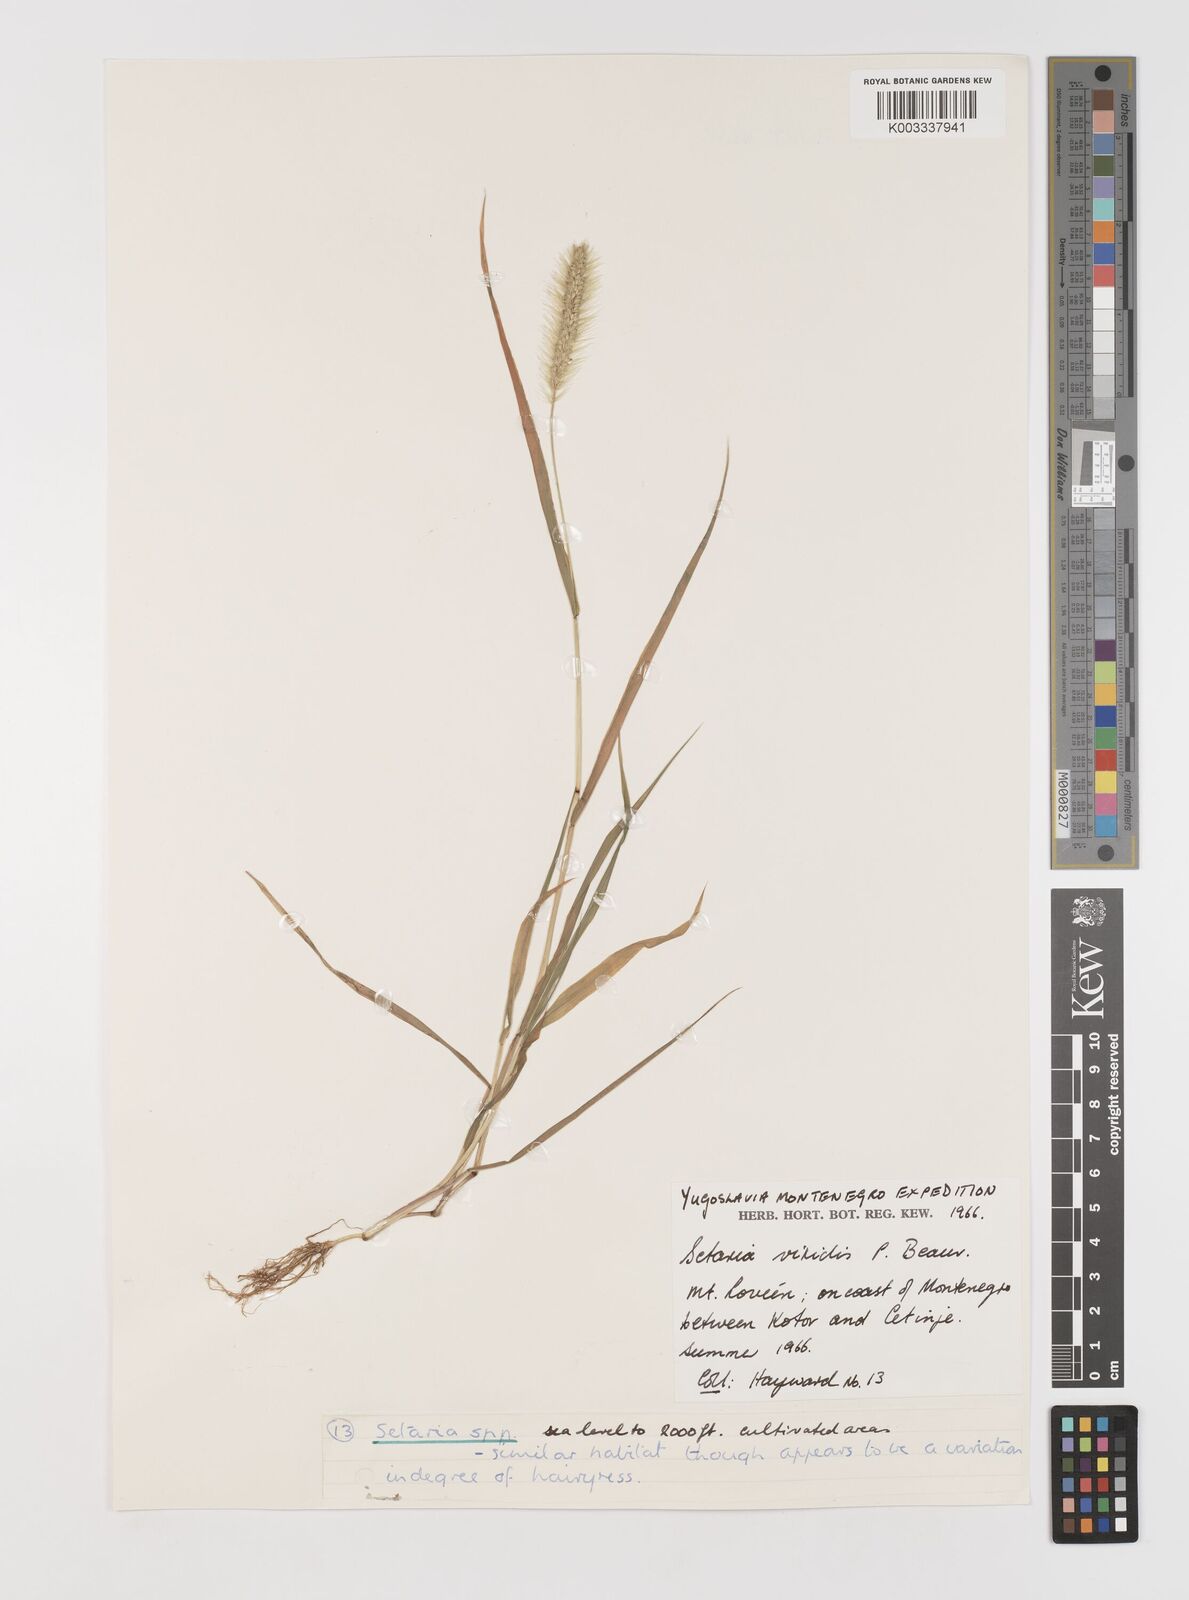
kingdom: Plantae
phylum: Tracheophyta
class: Liliopsida
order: Poales
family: Poaceae
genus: Setaria
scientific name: Setaria viridis
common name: Green bristlegrass
